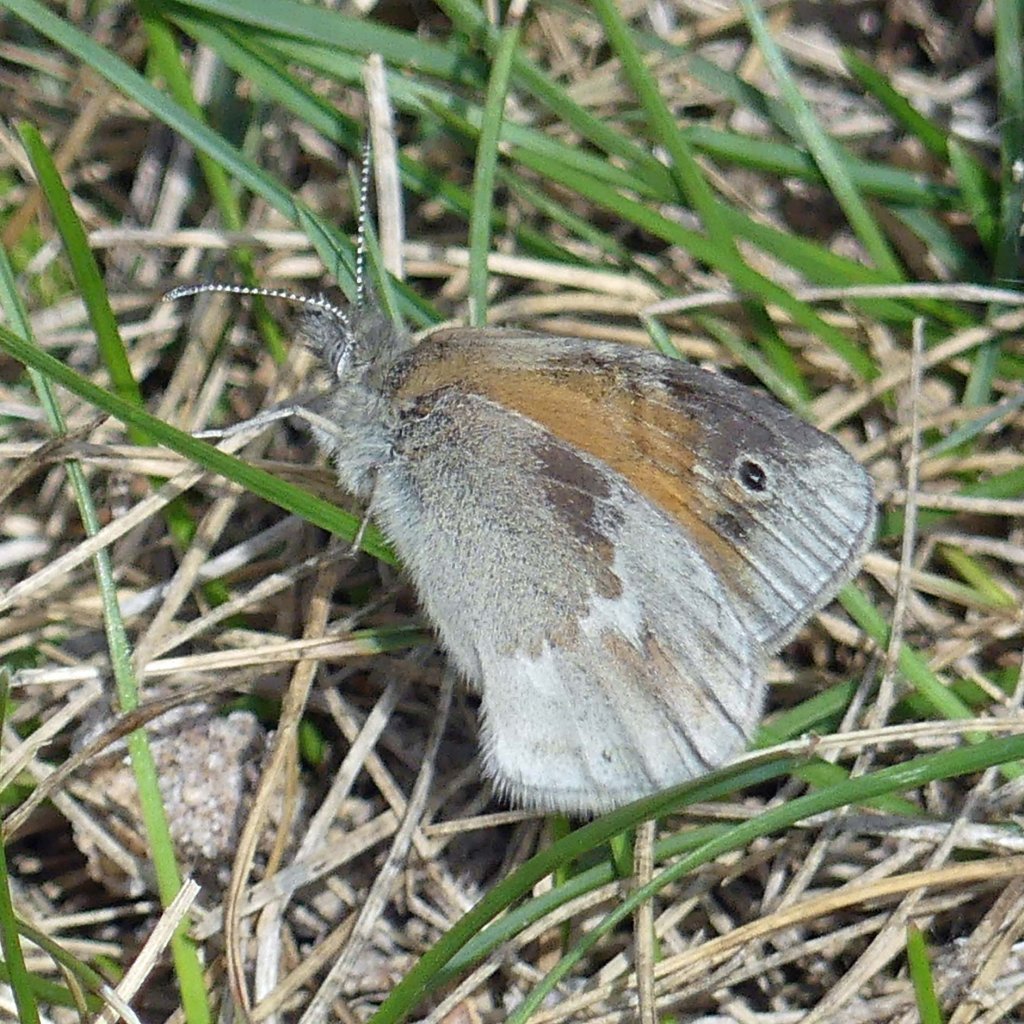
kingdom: Animalia
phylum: Arthropoda
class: Insecta
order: Lepidoptera
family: Nymphalidae
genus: Coenonympha
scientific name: Coenonympha tullia
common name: Large Heath
